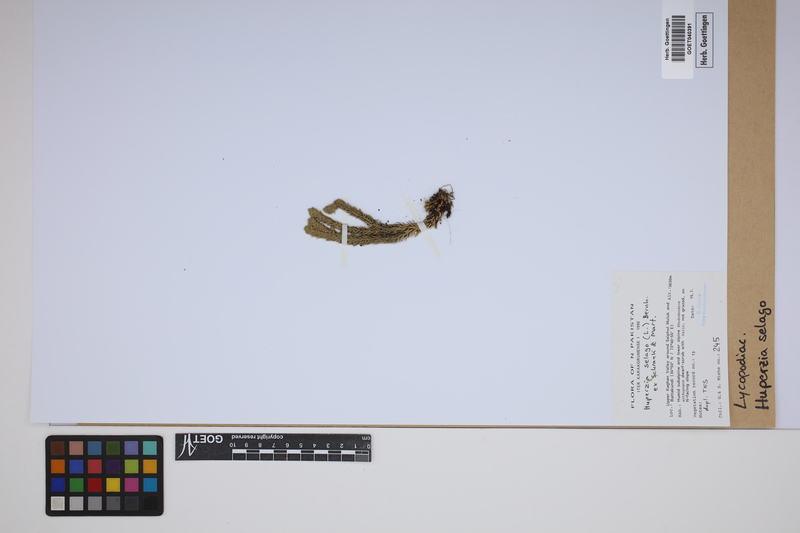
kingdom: Plantae
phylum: Tracheophyta
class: Lycopodiopsida
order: Lycopodiales
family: Lycopodiaceae
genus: Huperzia
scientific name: Huperzia selago
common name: Northern firmoss
